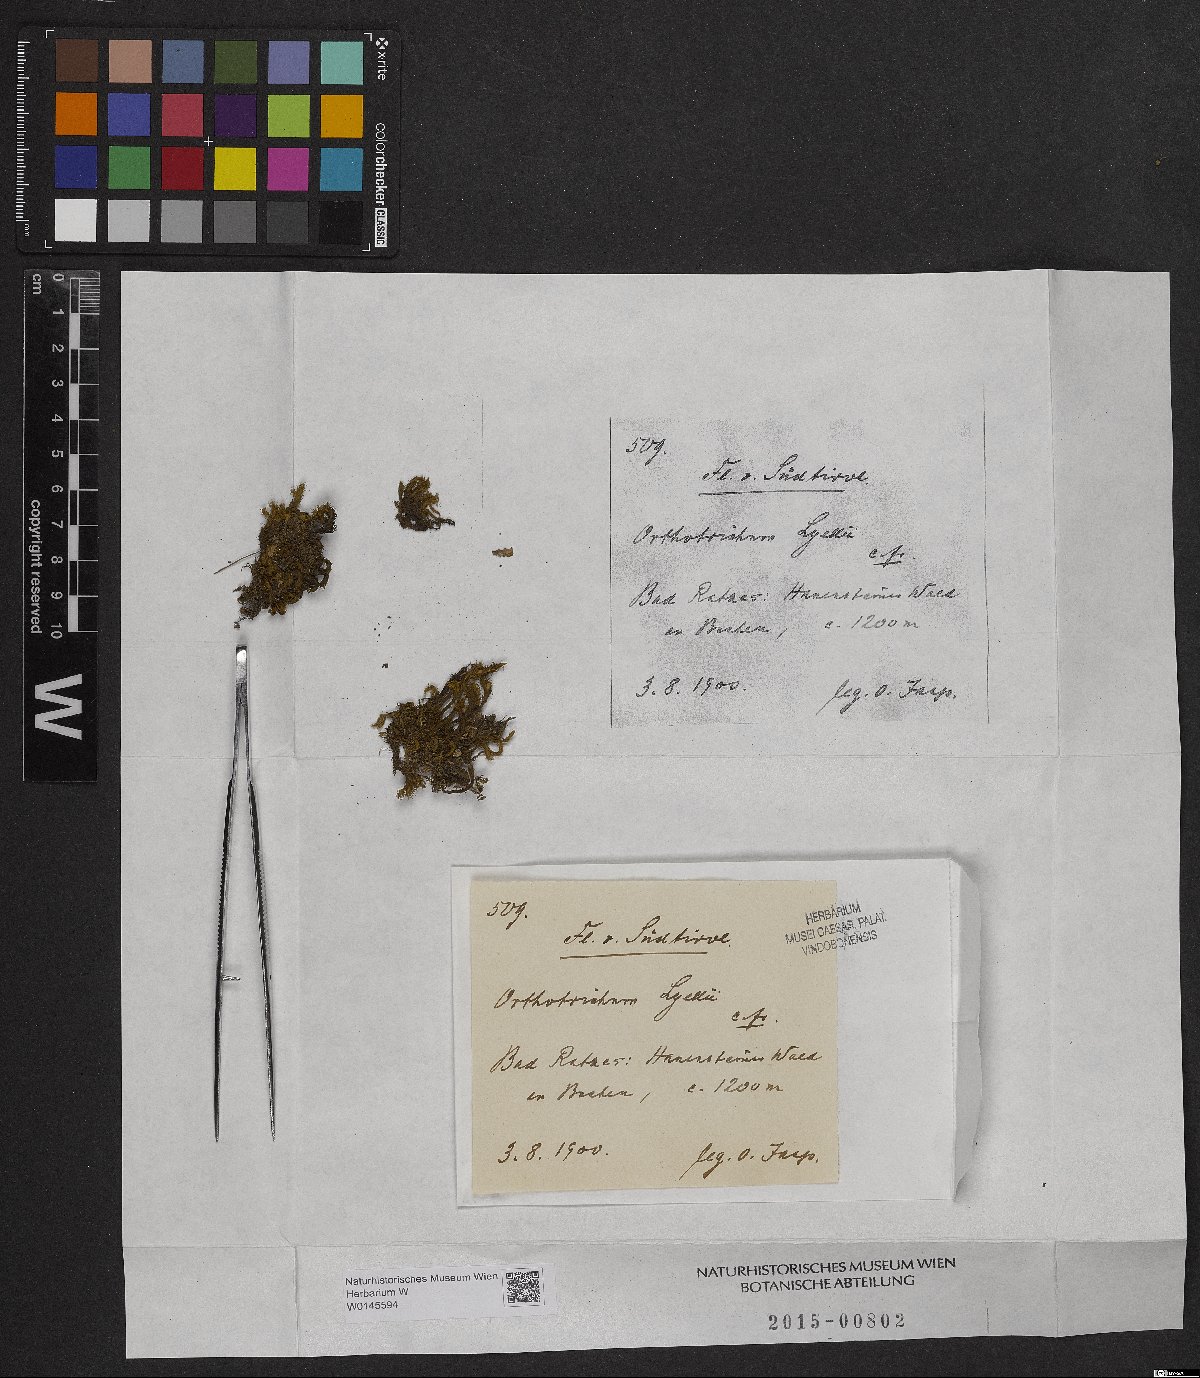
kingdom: Plantae
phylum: Bryophyta
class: Bryopsida
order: Orthotrichales
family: Orthotrichaceae
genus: Pulvigera
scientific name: Pulvigera lyellii
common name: Lyell's bristle-moss
